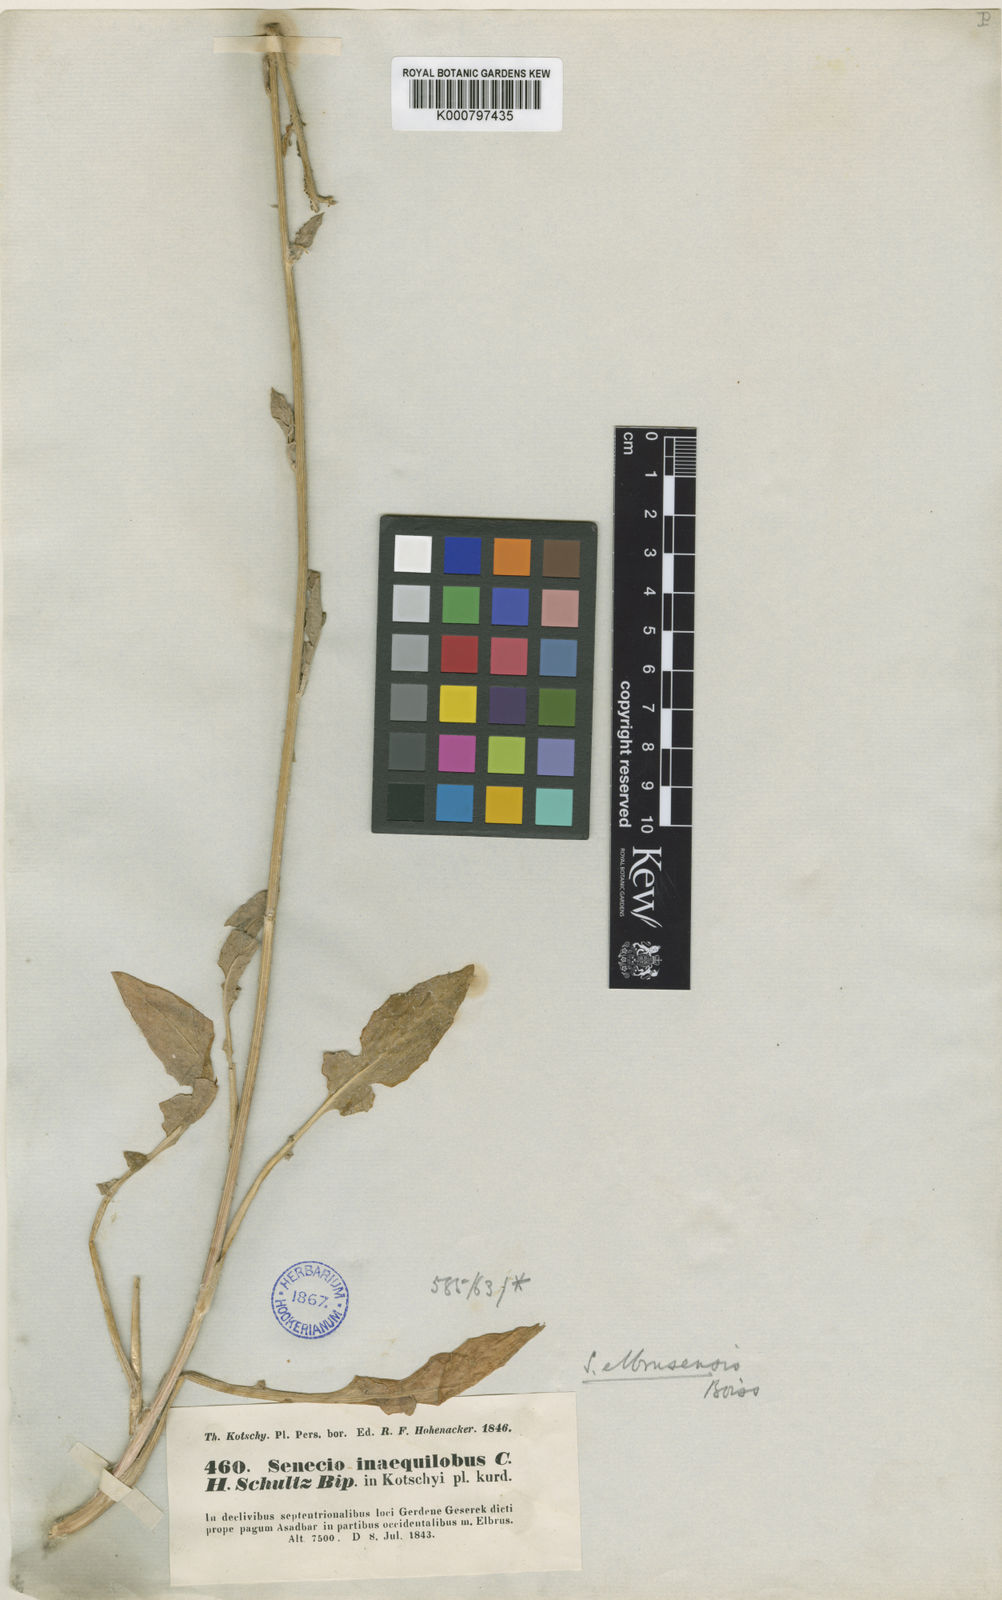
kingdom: Plantae
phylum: Tracheophyta
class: Magnoliopsida
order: Asterales
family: Asteraceae
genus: Iranecio
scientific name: Iranecio elbrusensis
